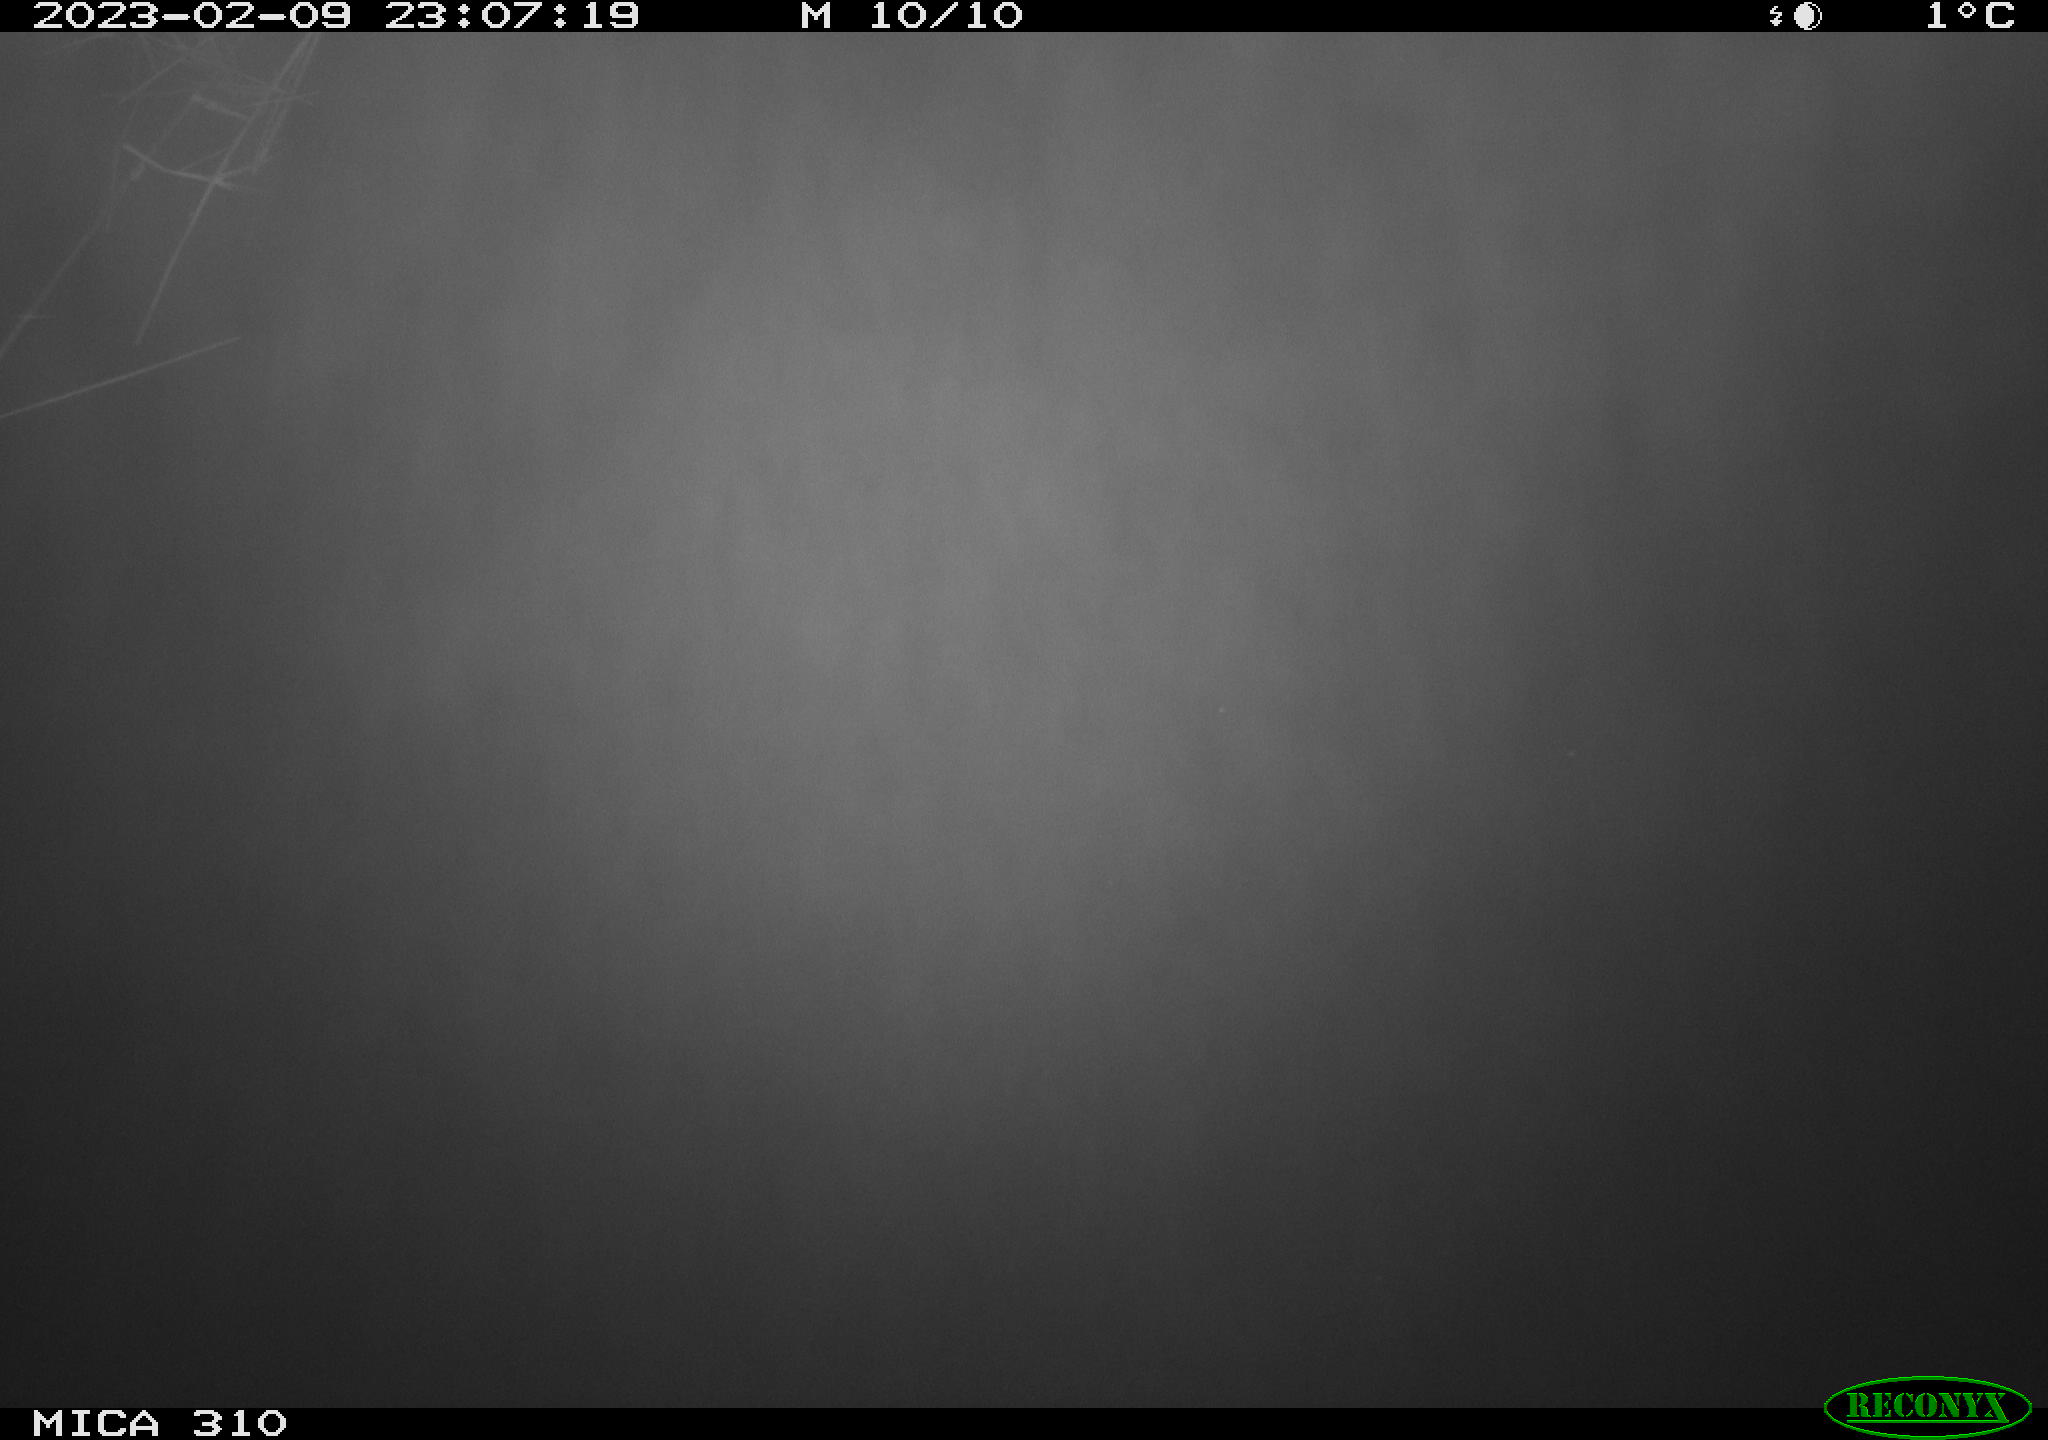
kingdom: Animalia
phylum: Chordata
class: Aves
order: Anseriformes
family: Anatidae
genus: Anas
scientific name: Anas
